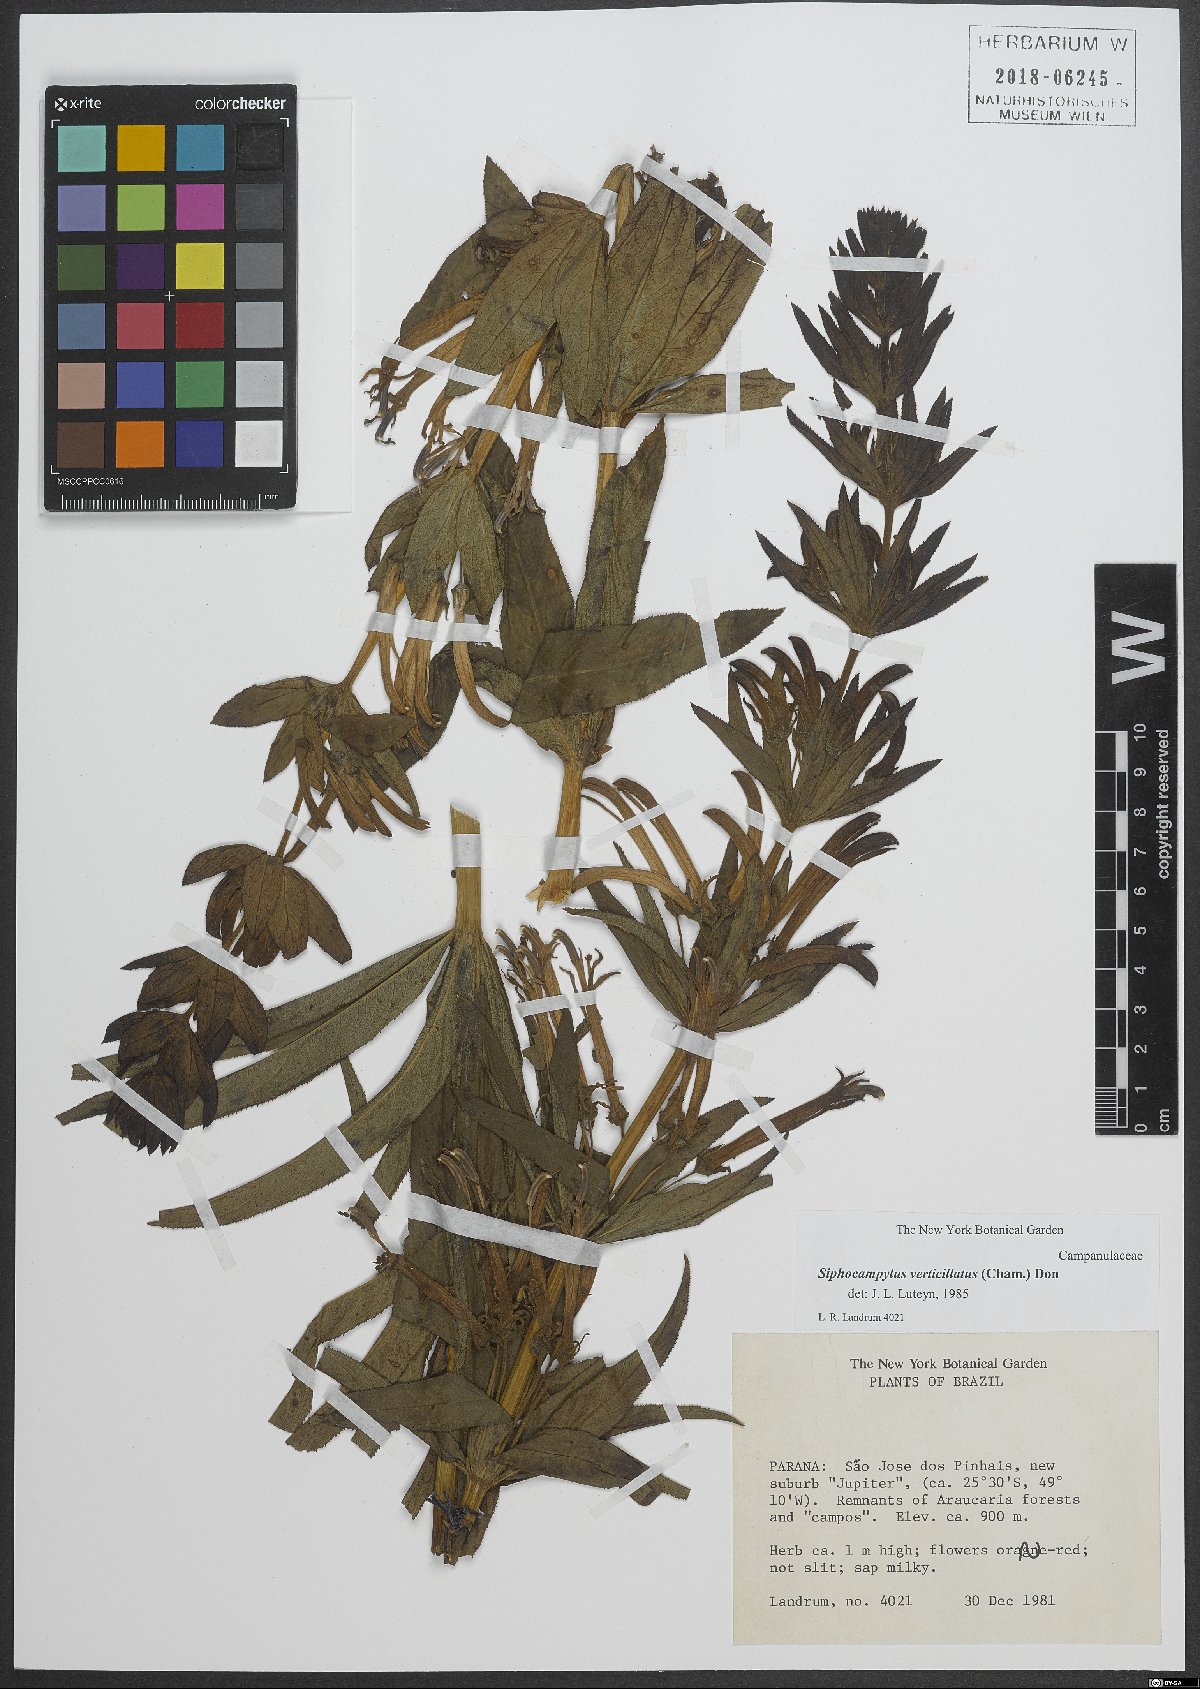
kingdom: Plantae
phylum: Tracheophyta
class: Magnoliopsida
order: Asterales
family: Campanulaceae
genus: Siphocampylus
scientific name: Siphocampylus verticillatus
